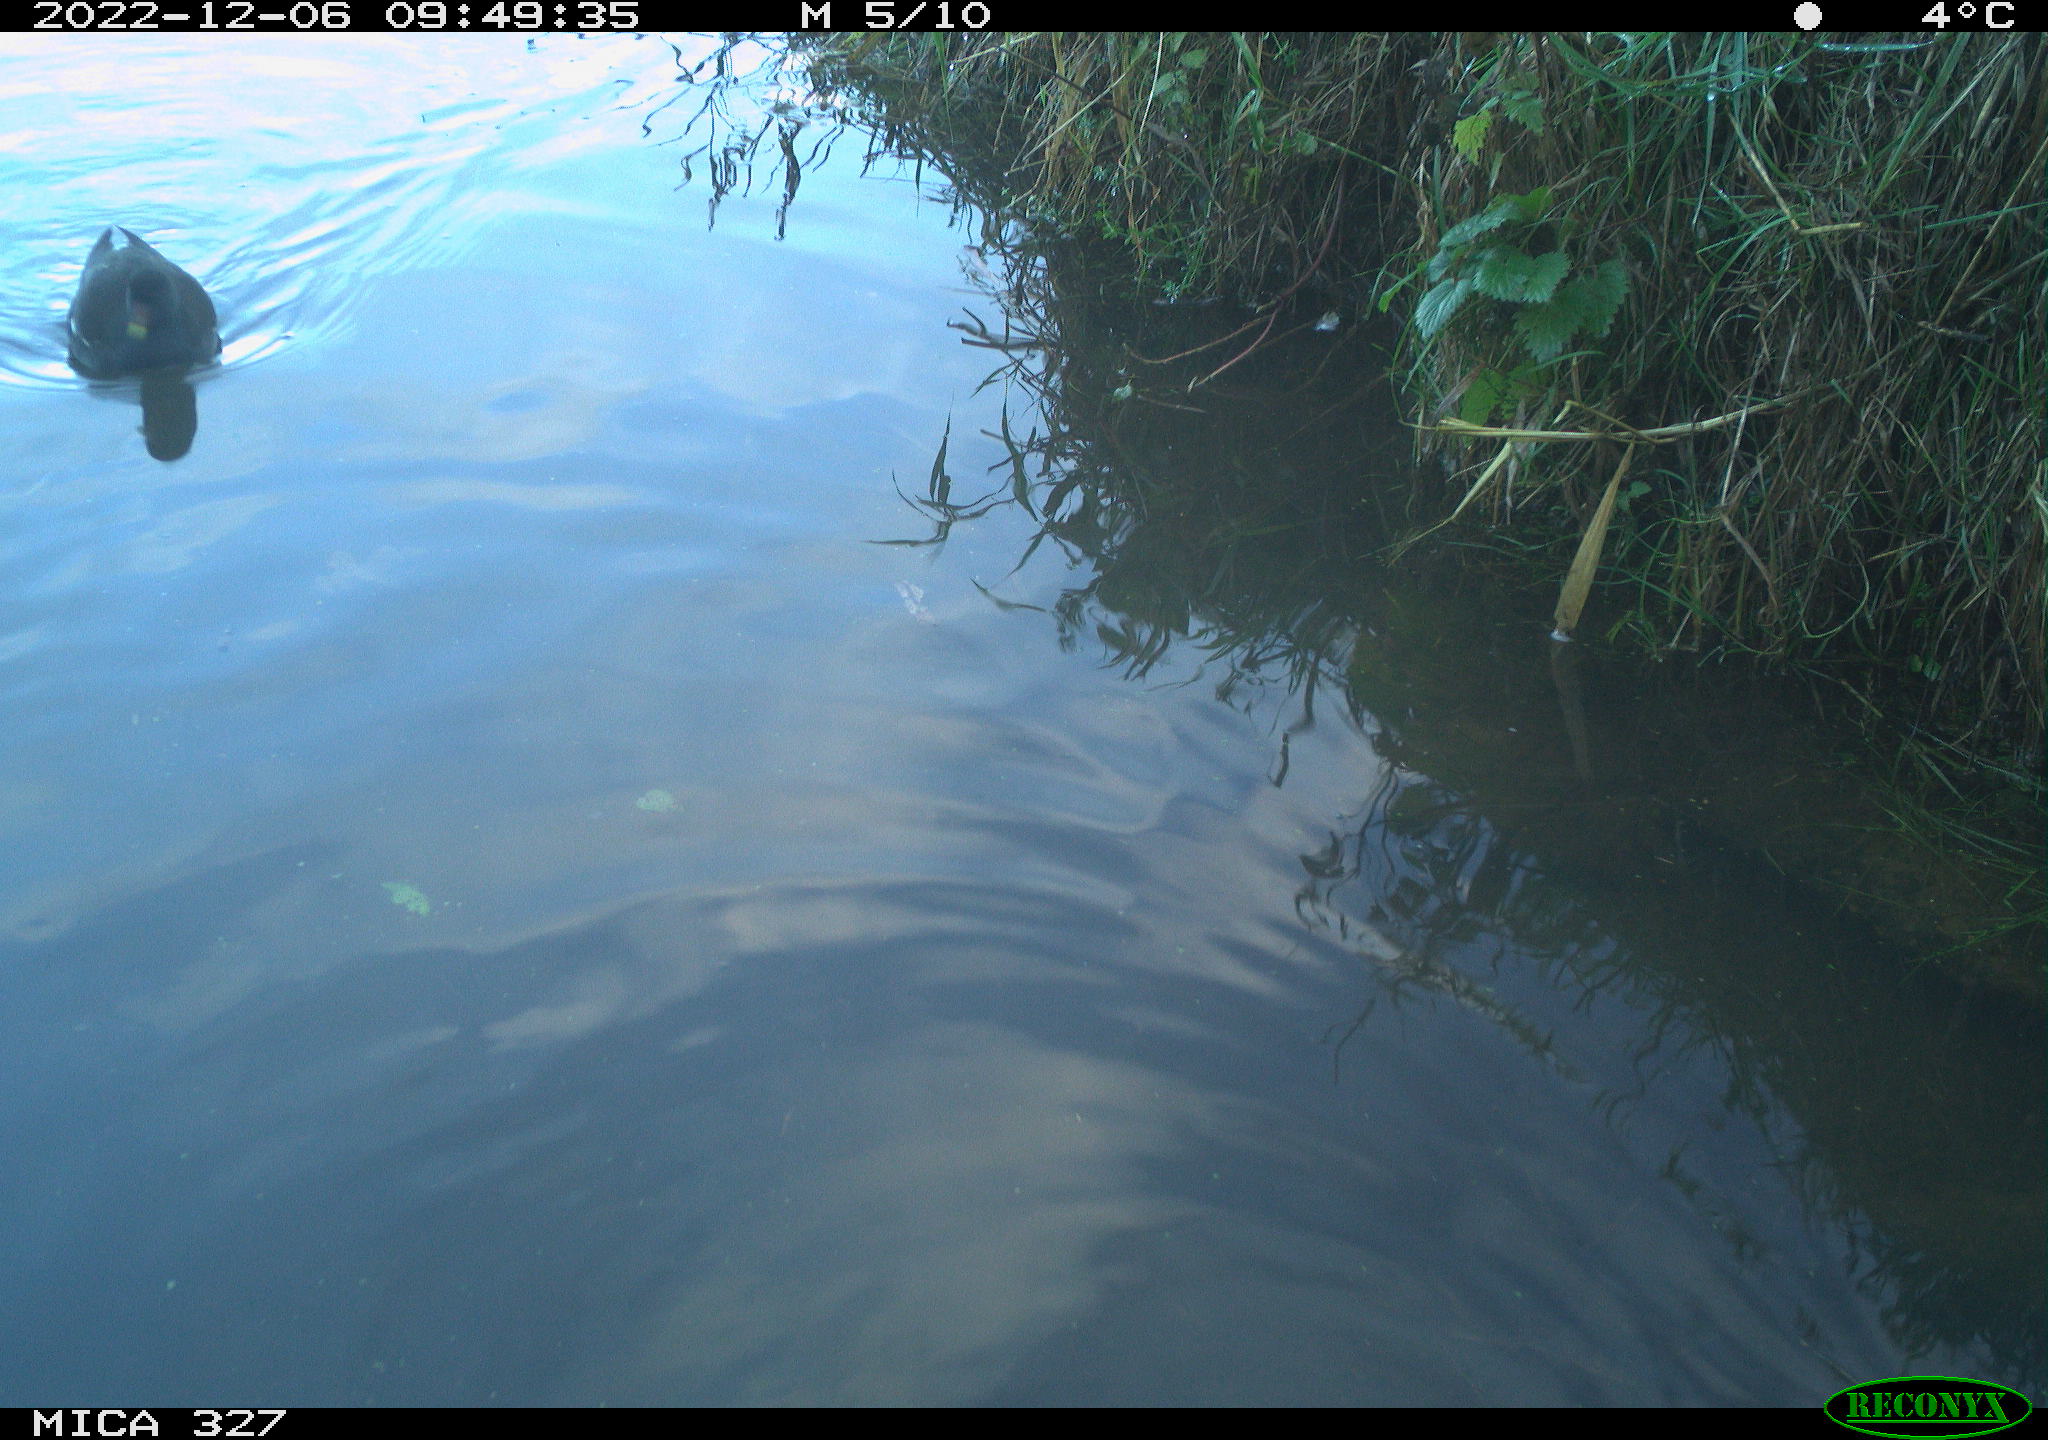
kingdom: Animalia
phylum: Chordata
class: Aves
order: Gruiformes
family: Rallidae
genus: Gallinula
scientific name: Gallinula chloropus
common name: Common moorhen
